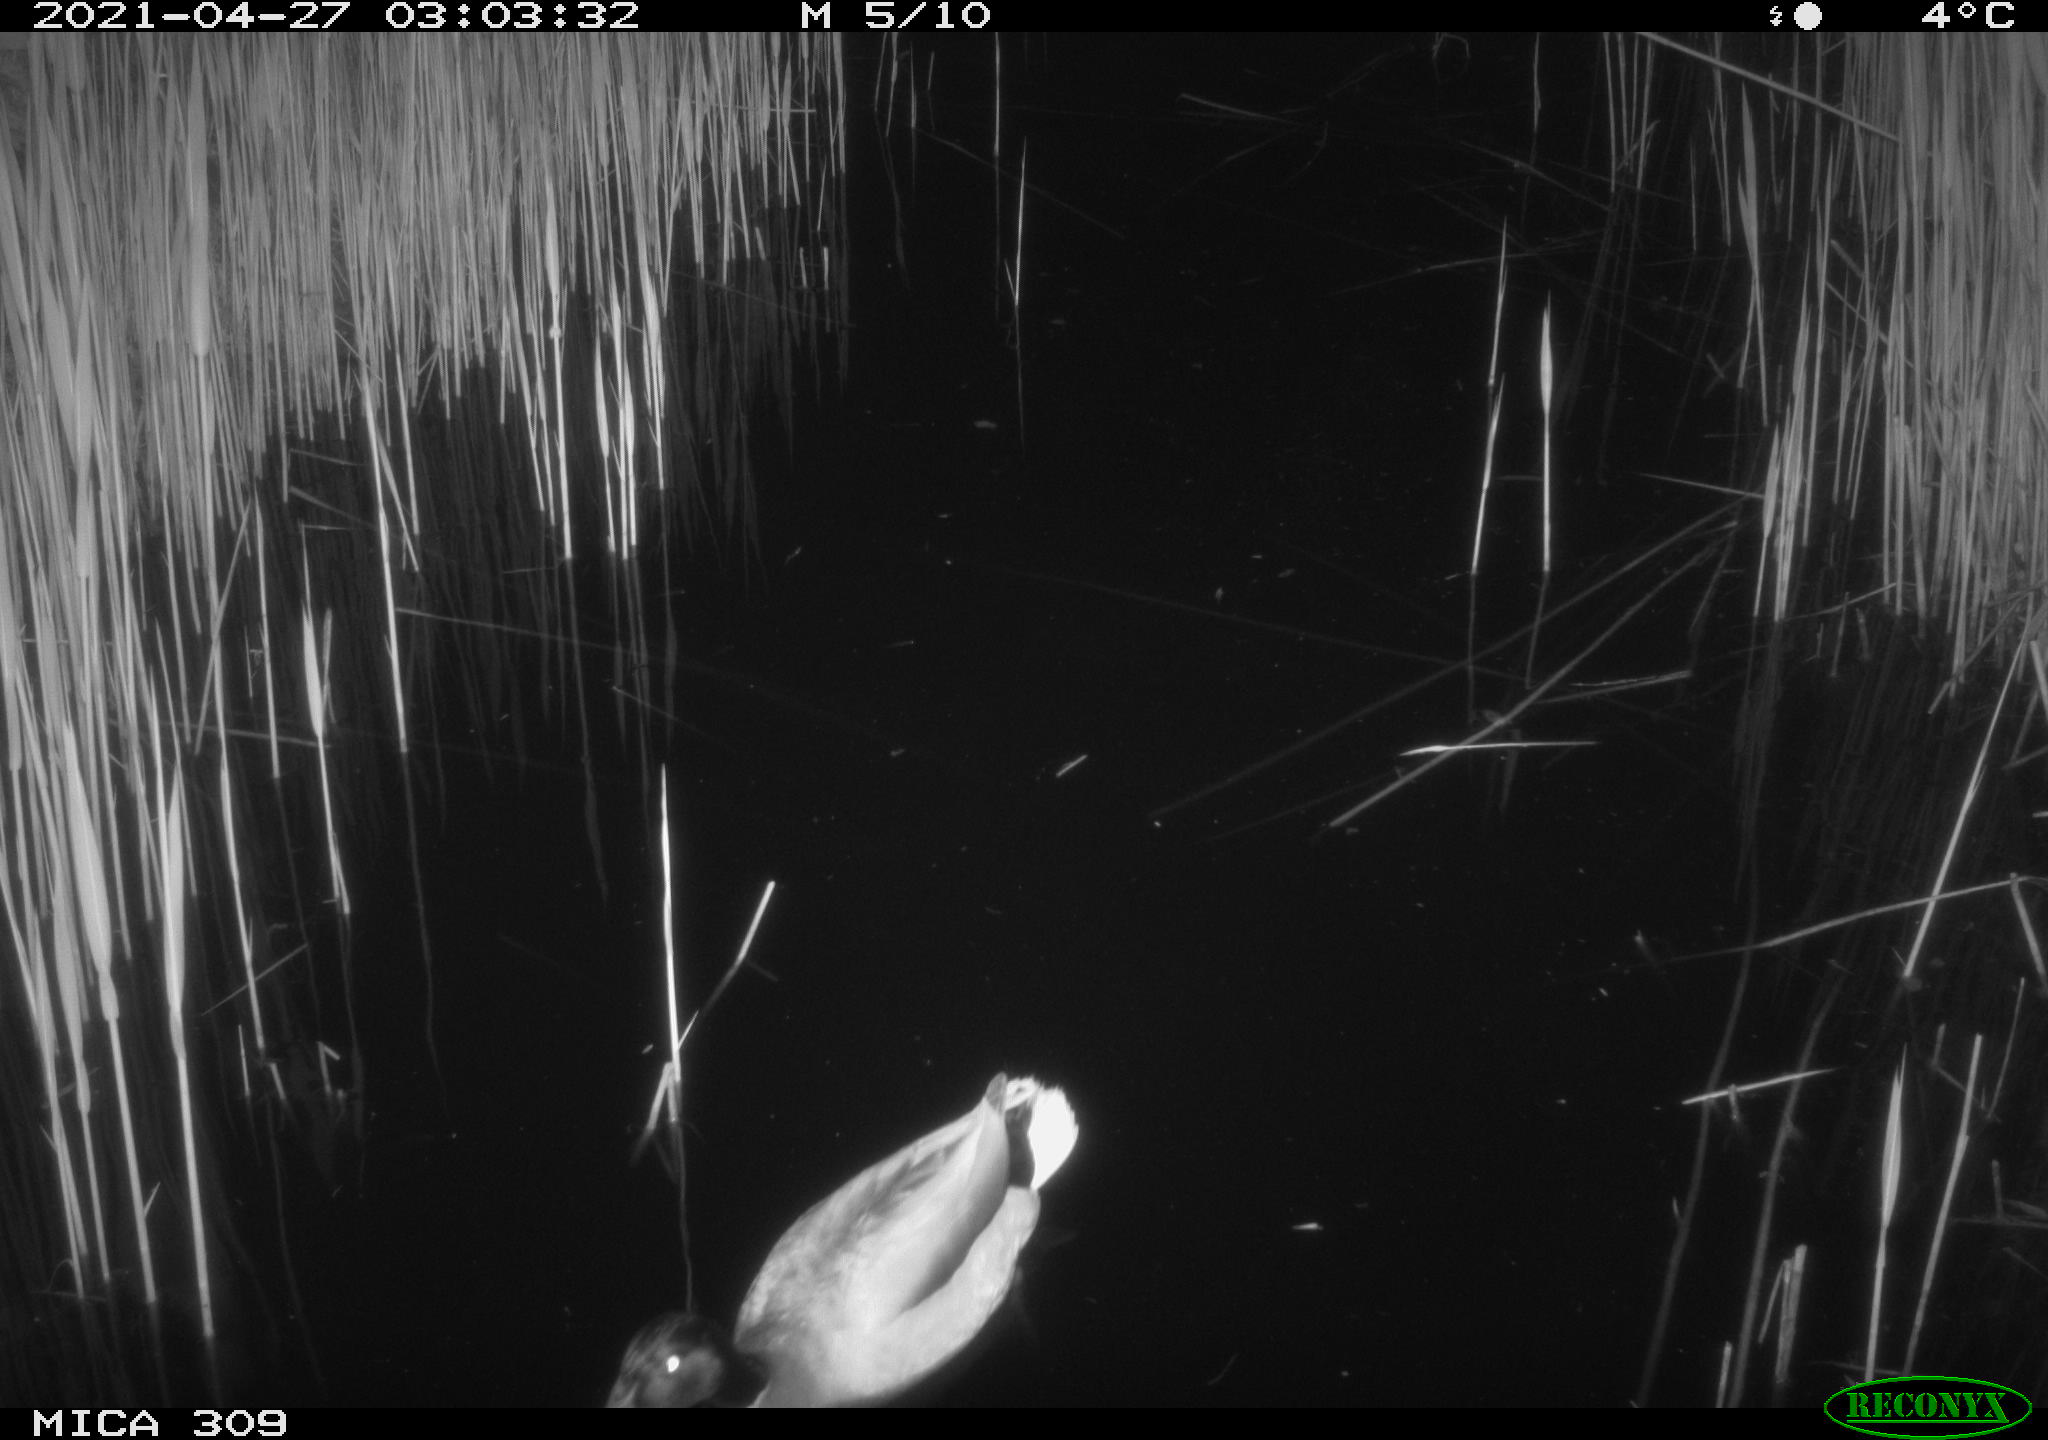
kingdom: Animalia
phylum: Chordata
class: Aves
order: Anseriformes
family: Anatidae
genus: Anas
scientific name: Anas platyrhynchos
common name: Mallard
